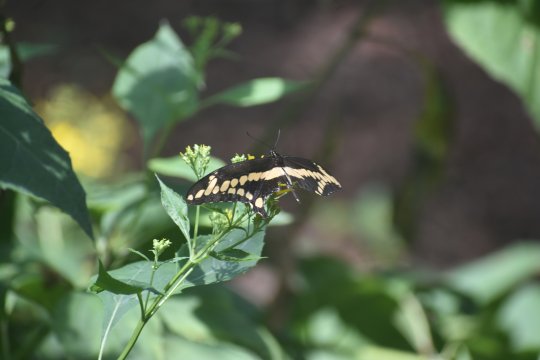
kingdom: Animalia
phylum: Arthropoda
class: Insecta
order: Lepidoptera
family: Papilionidae
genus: Papilio
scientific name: Papilio cresphontes
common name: Eastern Giant Swallowtail
